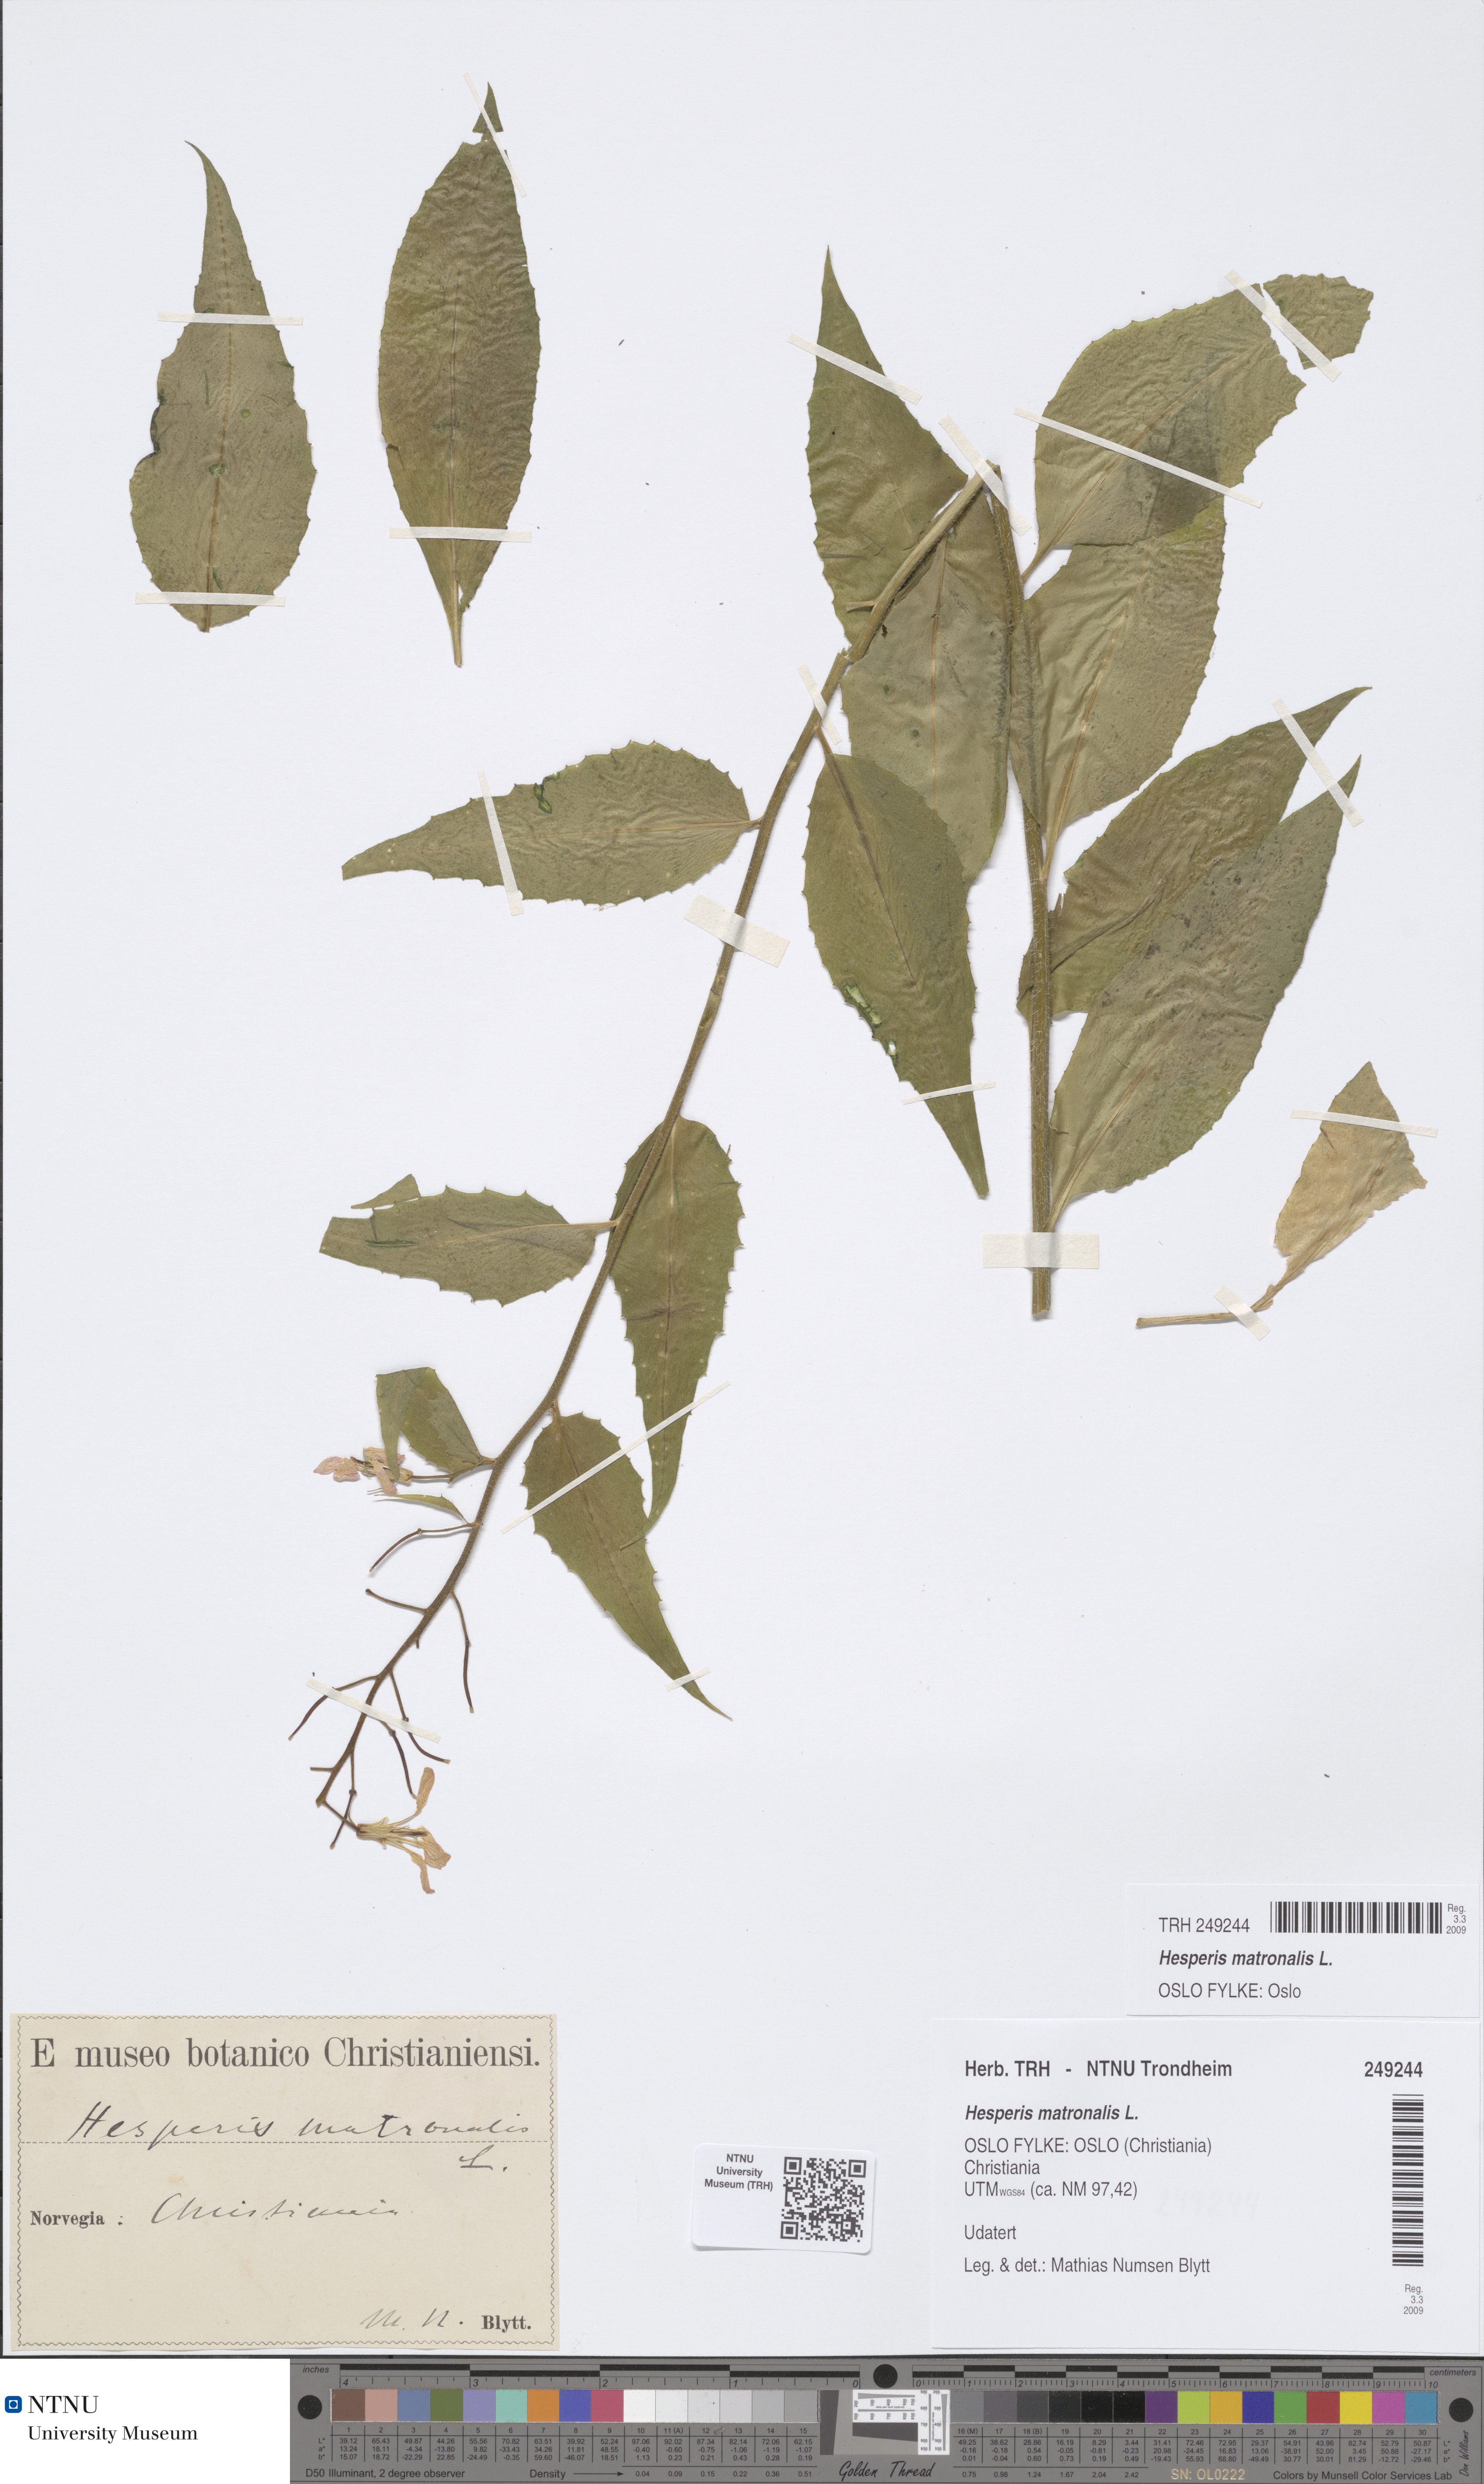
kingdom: Plantae
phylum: Tracheophyta
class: Magnoliopsida
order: Brassicales
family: Brassicaceae
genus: Hesperis
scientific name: Hesperis matronalis
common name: Dame's-violet
